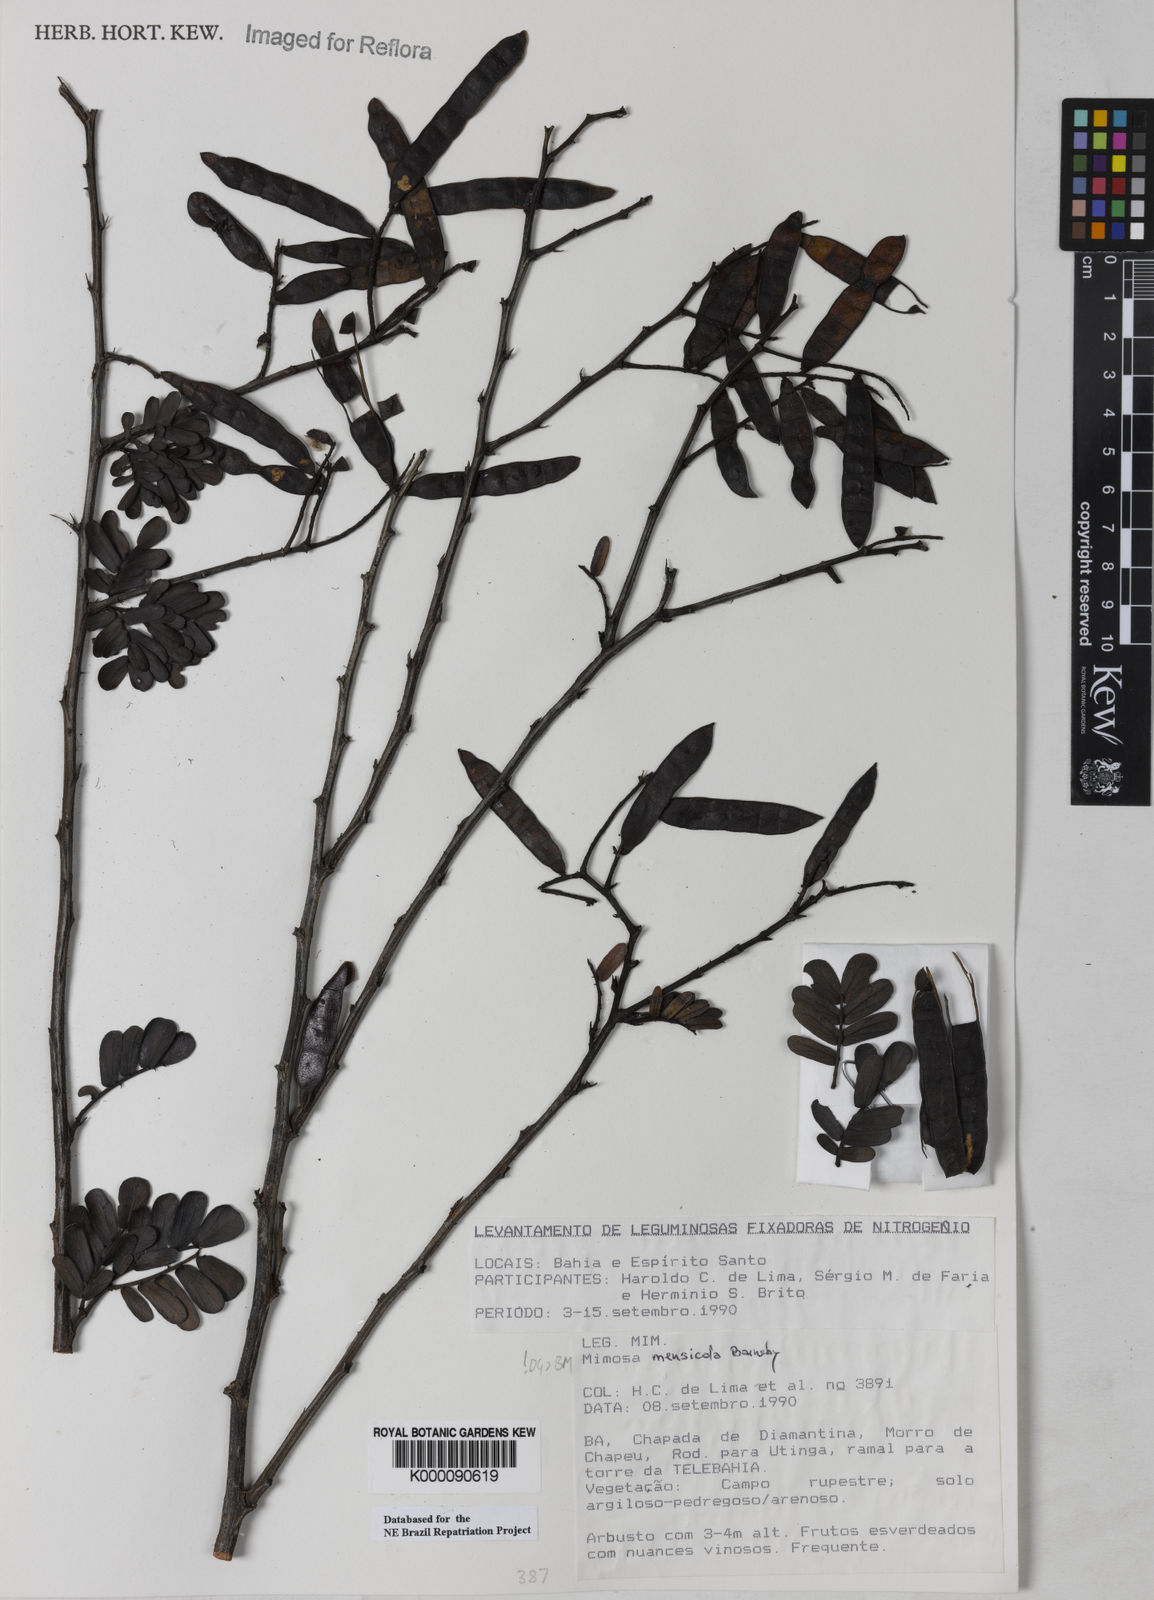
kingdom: Plantae
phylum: Tracheophyta
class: Magnoliopsida
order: Fabales
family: Fabaceae
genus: Mimosa
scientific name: Mimosa mensicola
